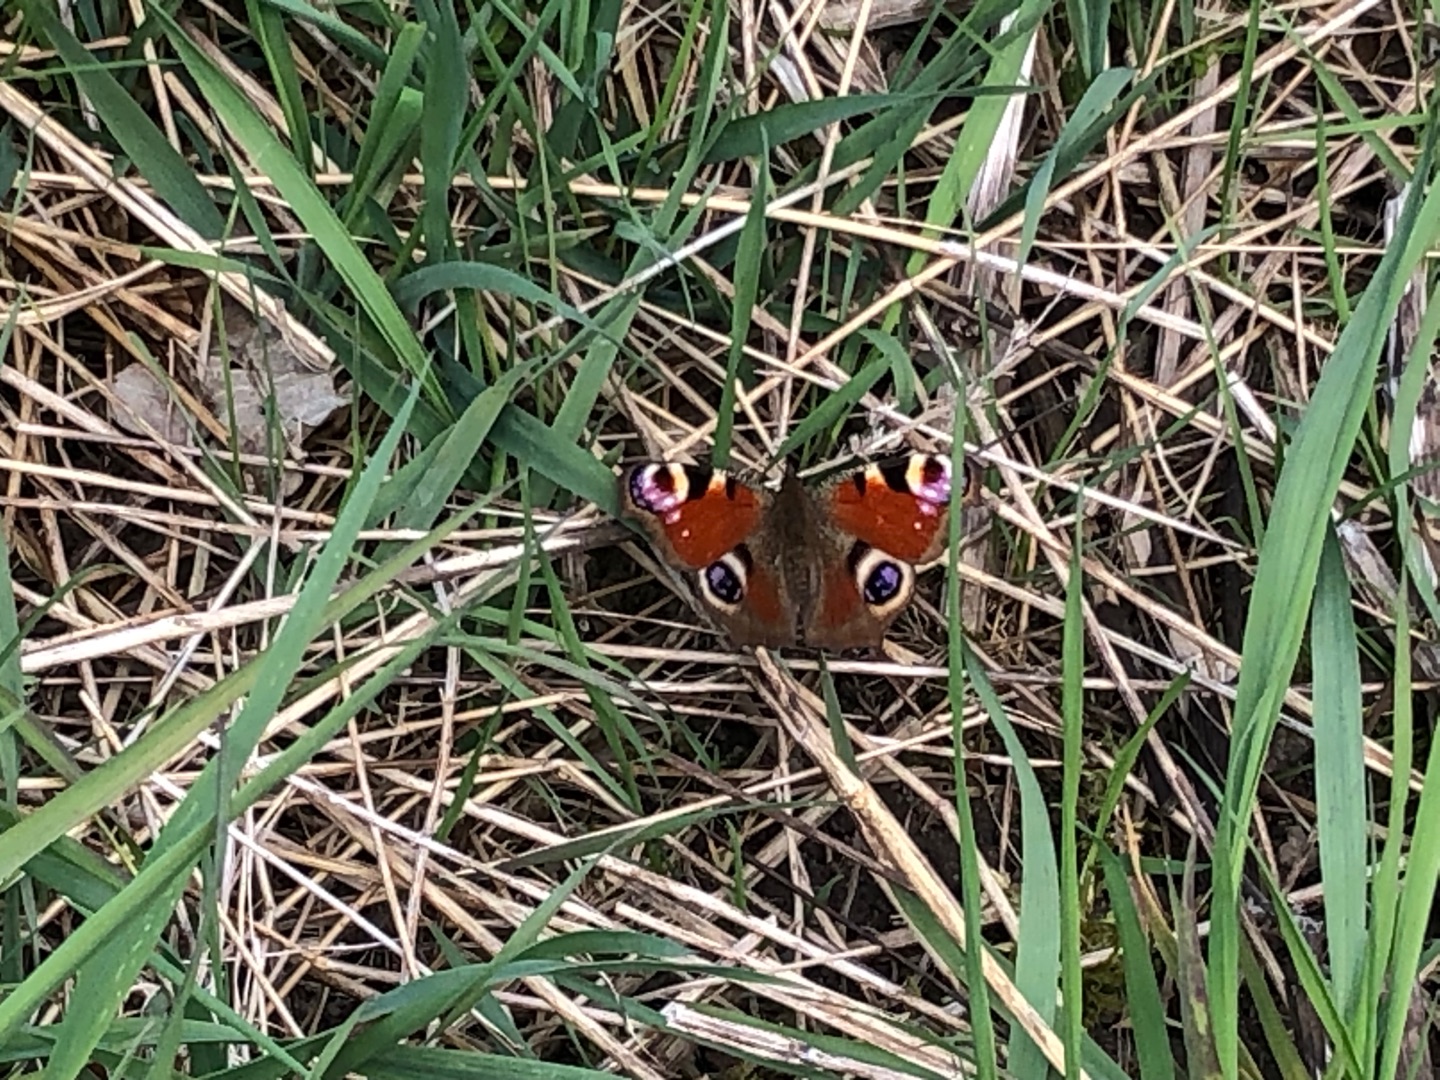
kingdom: Animalia
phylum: Arthropoda
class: Insecta
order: Lepidoptera
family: Nymphalidae
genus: Aglais
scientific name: Aglais io
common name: Dagpåfugleøje
